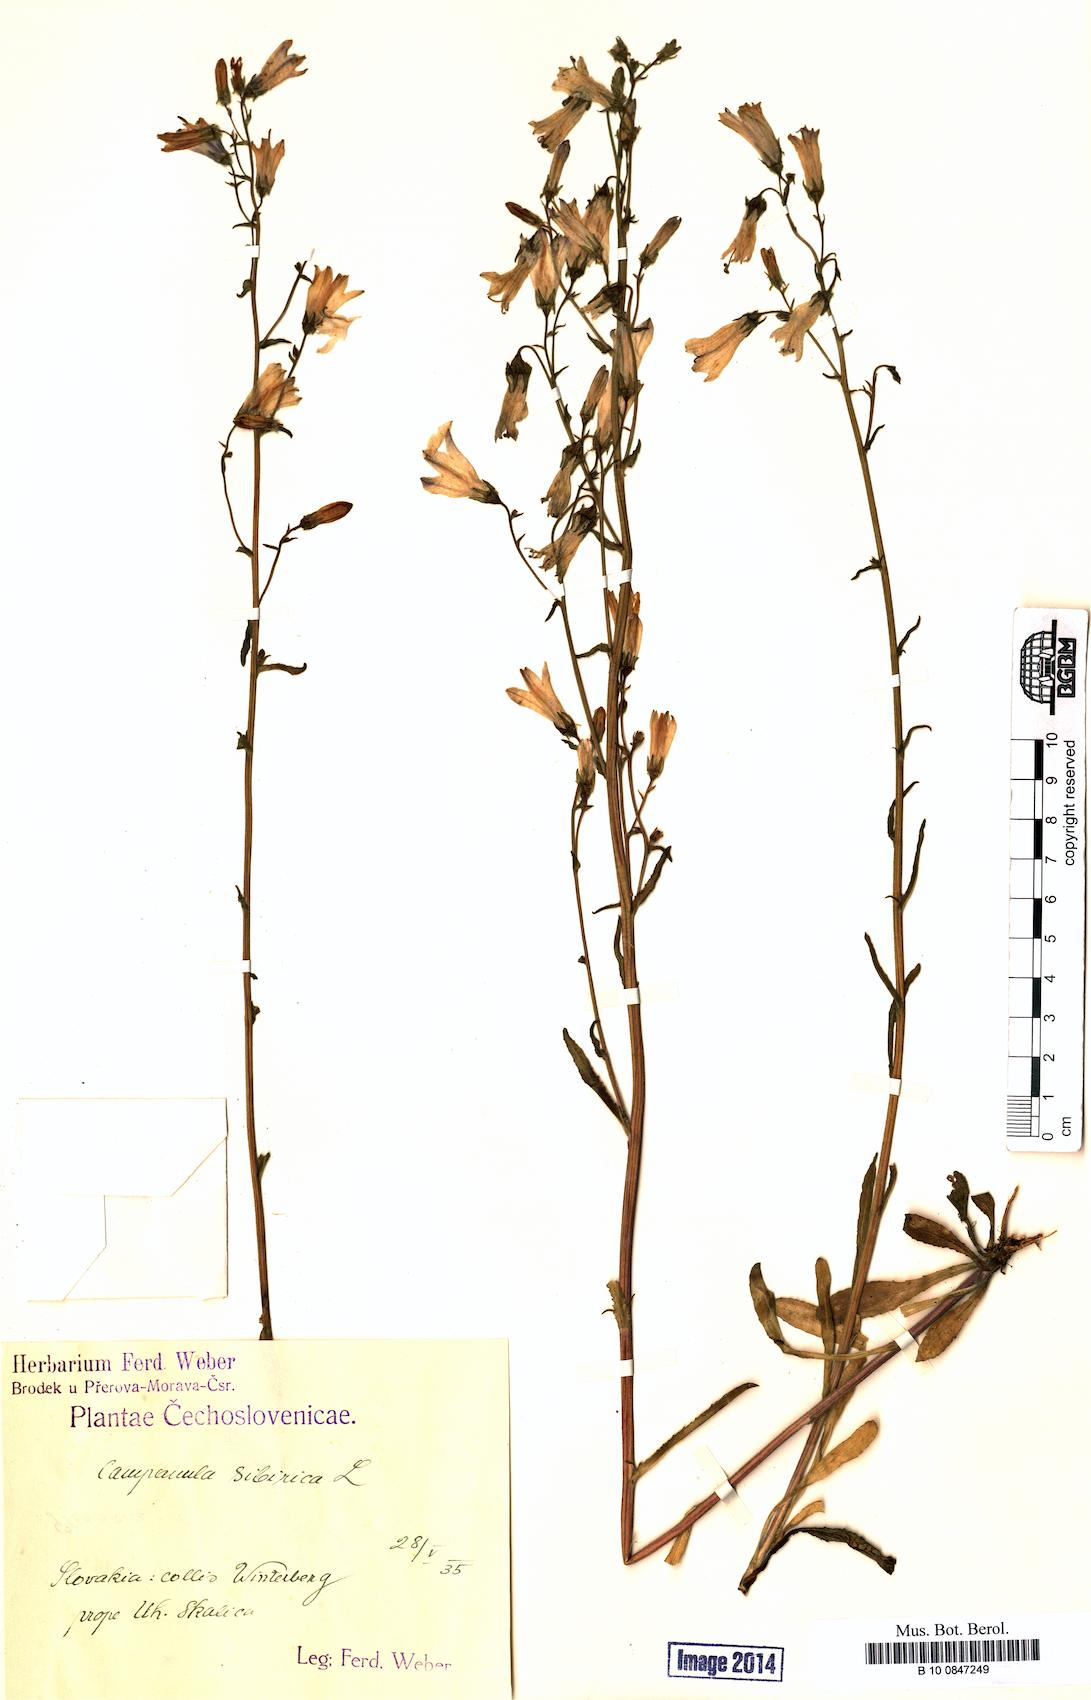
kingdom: Plantae
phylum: Tracheophyta
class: Magnoliopsida
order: Asterales
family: Campanulaceae
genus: Campanula
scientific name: Campanula sibirica
